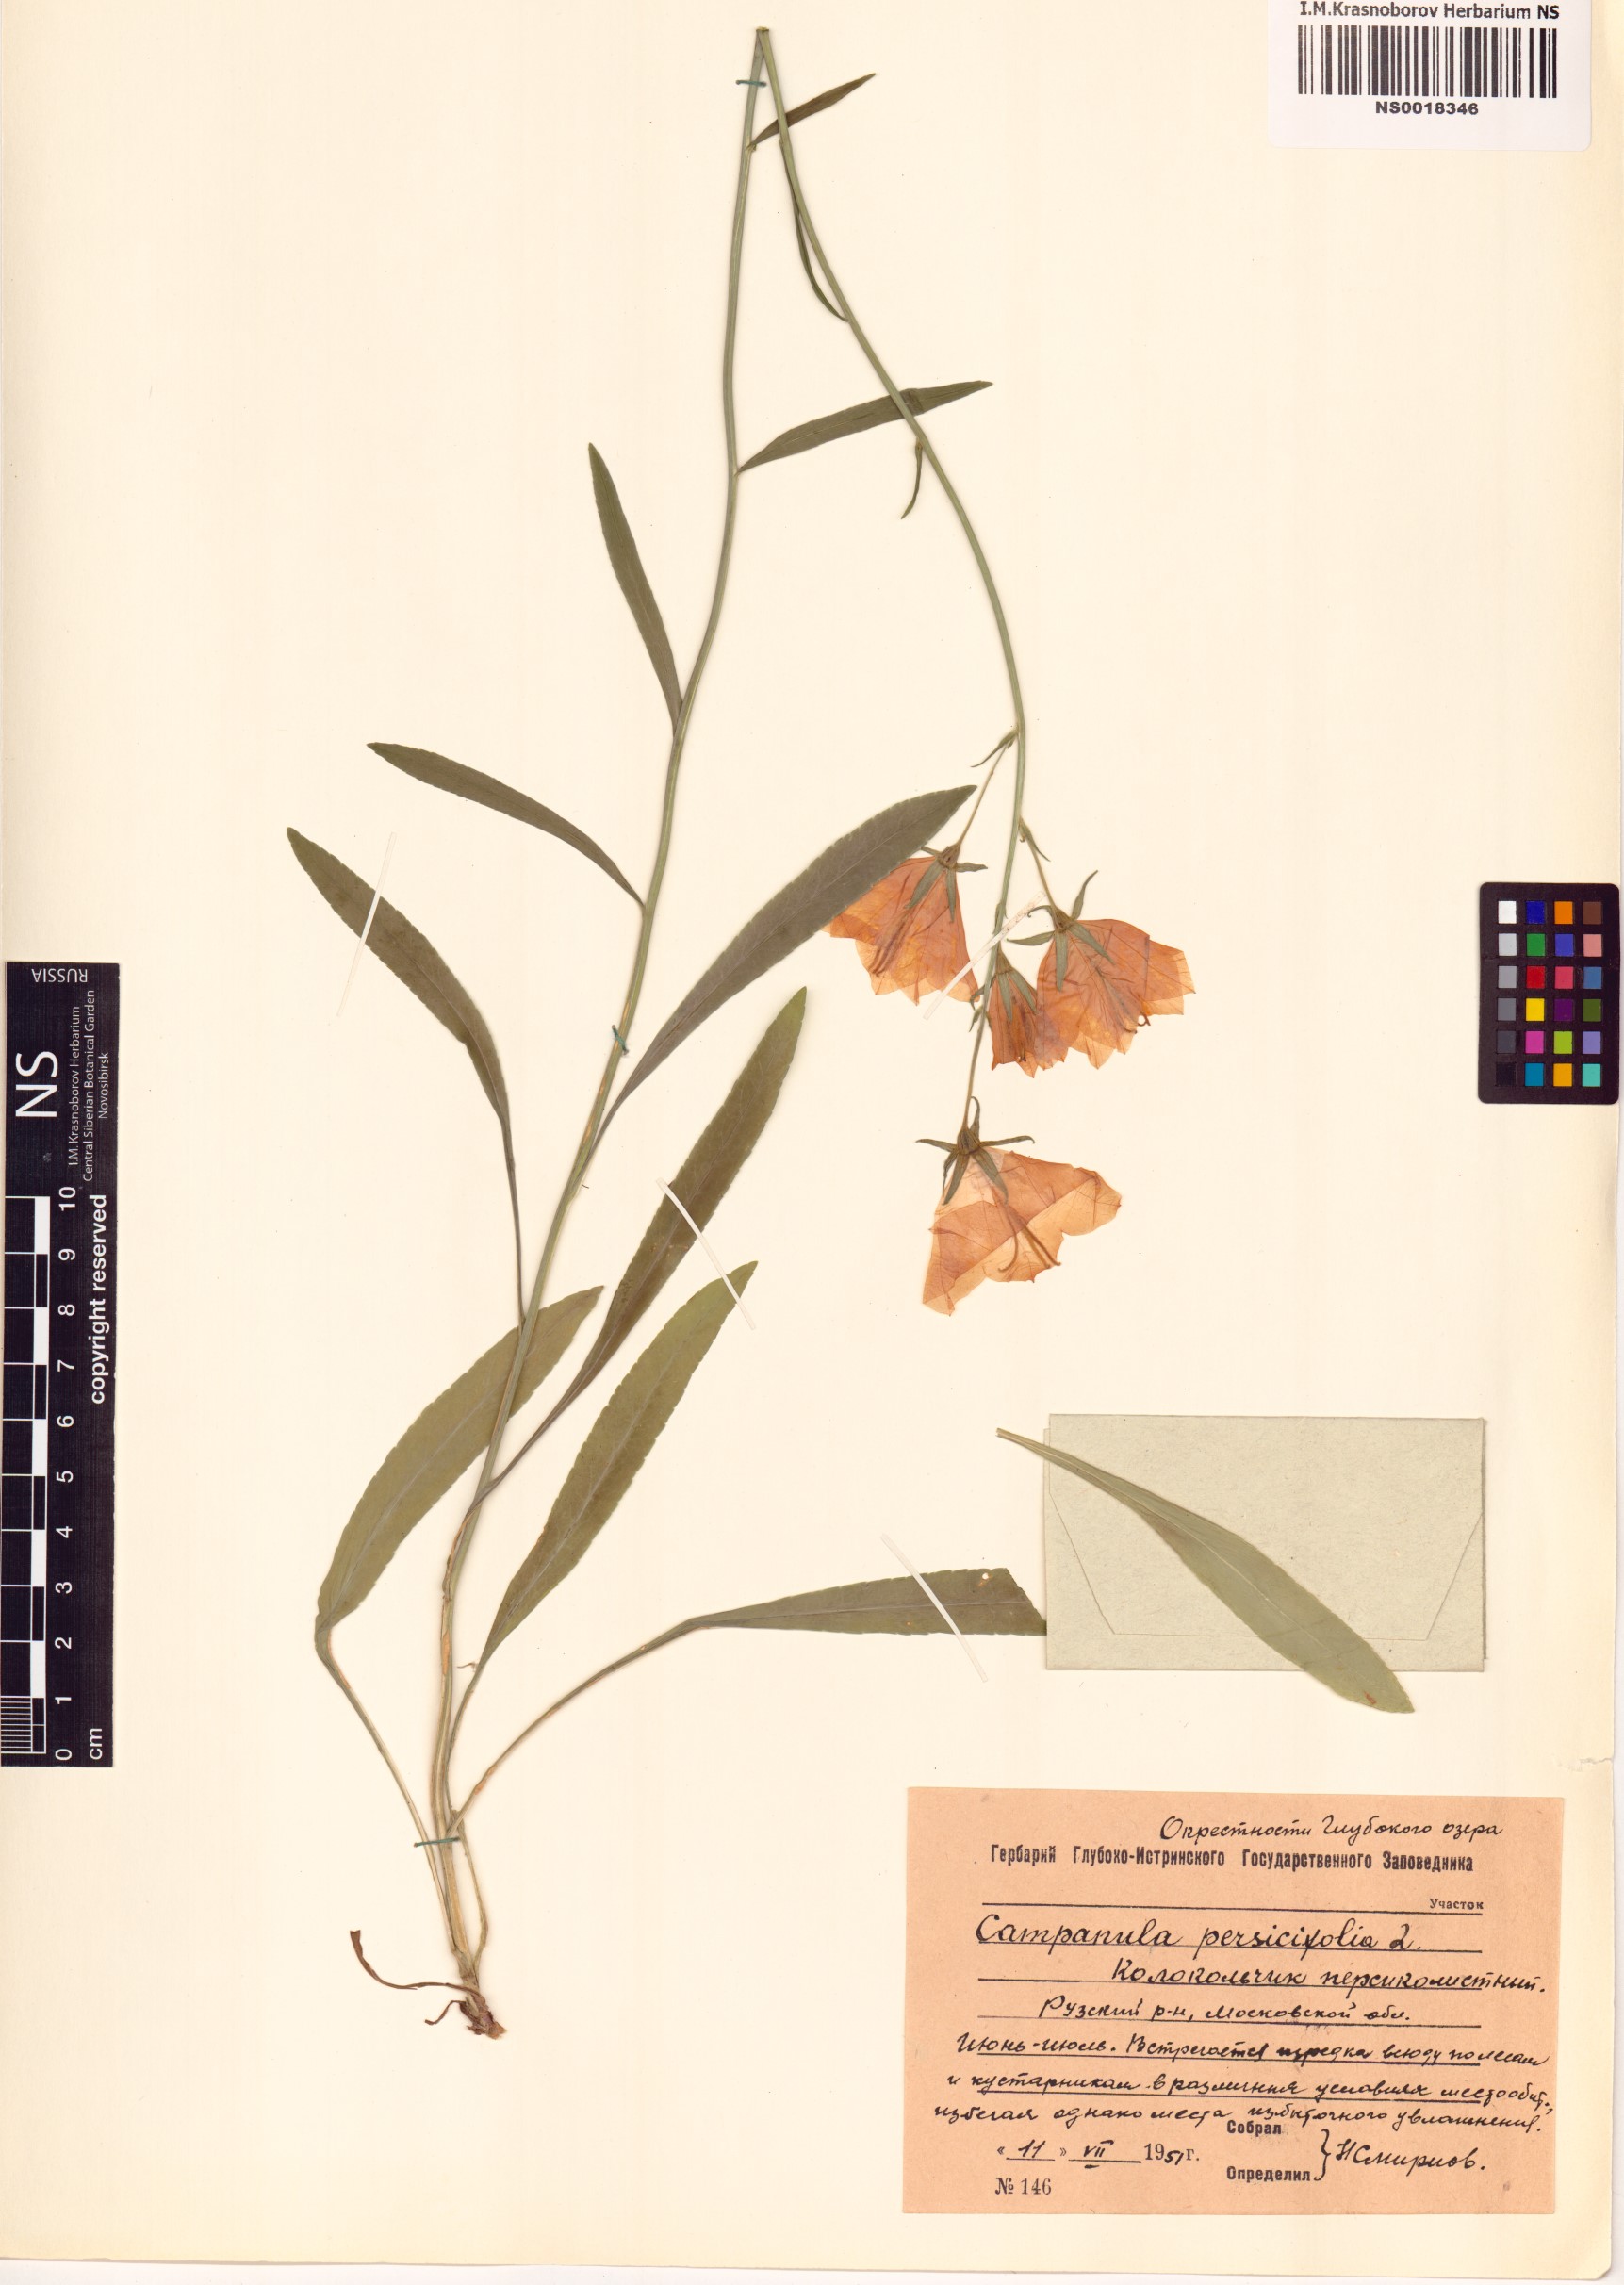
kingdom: Plantae
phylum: Tracheophyta
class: Magnoliopsida
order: Asterales
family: Campanulaceae
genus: Campanula
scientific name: Campanula persicifolia
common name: Peach-leaved bellflower
